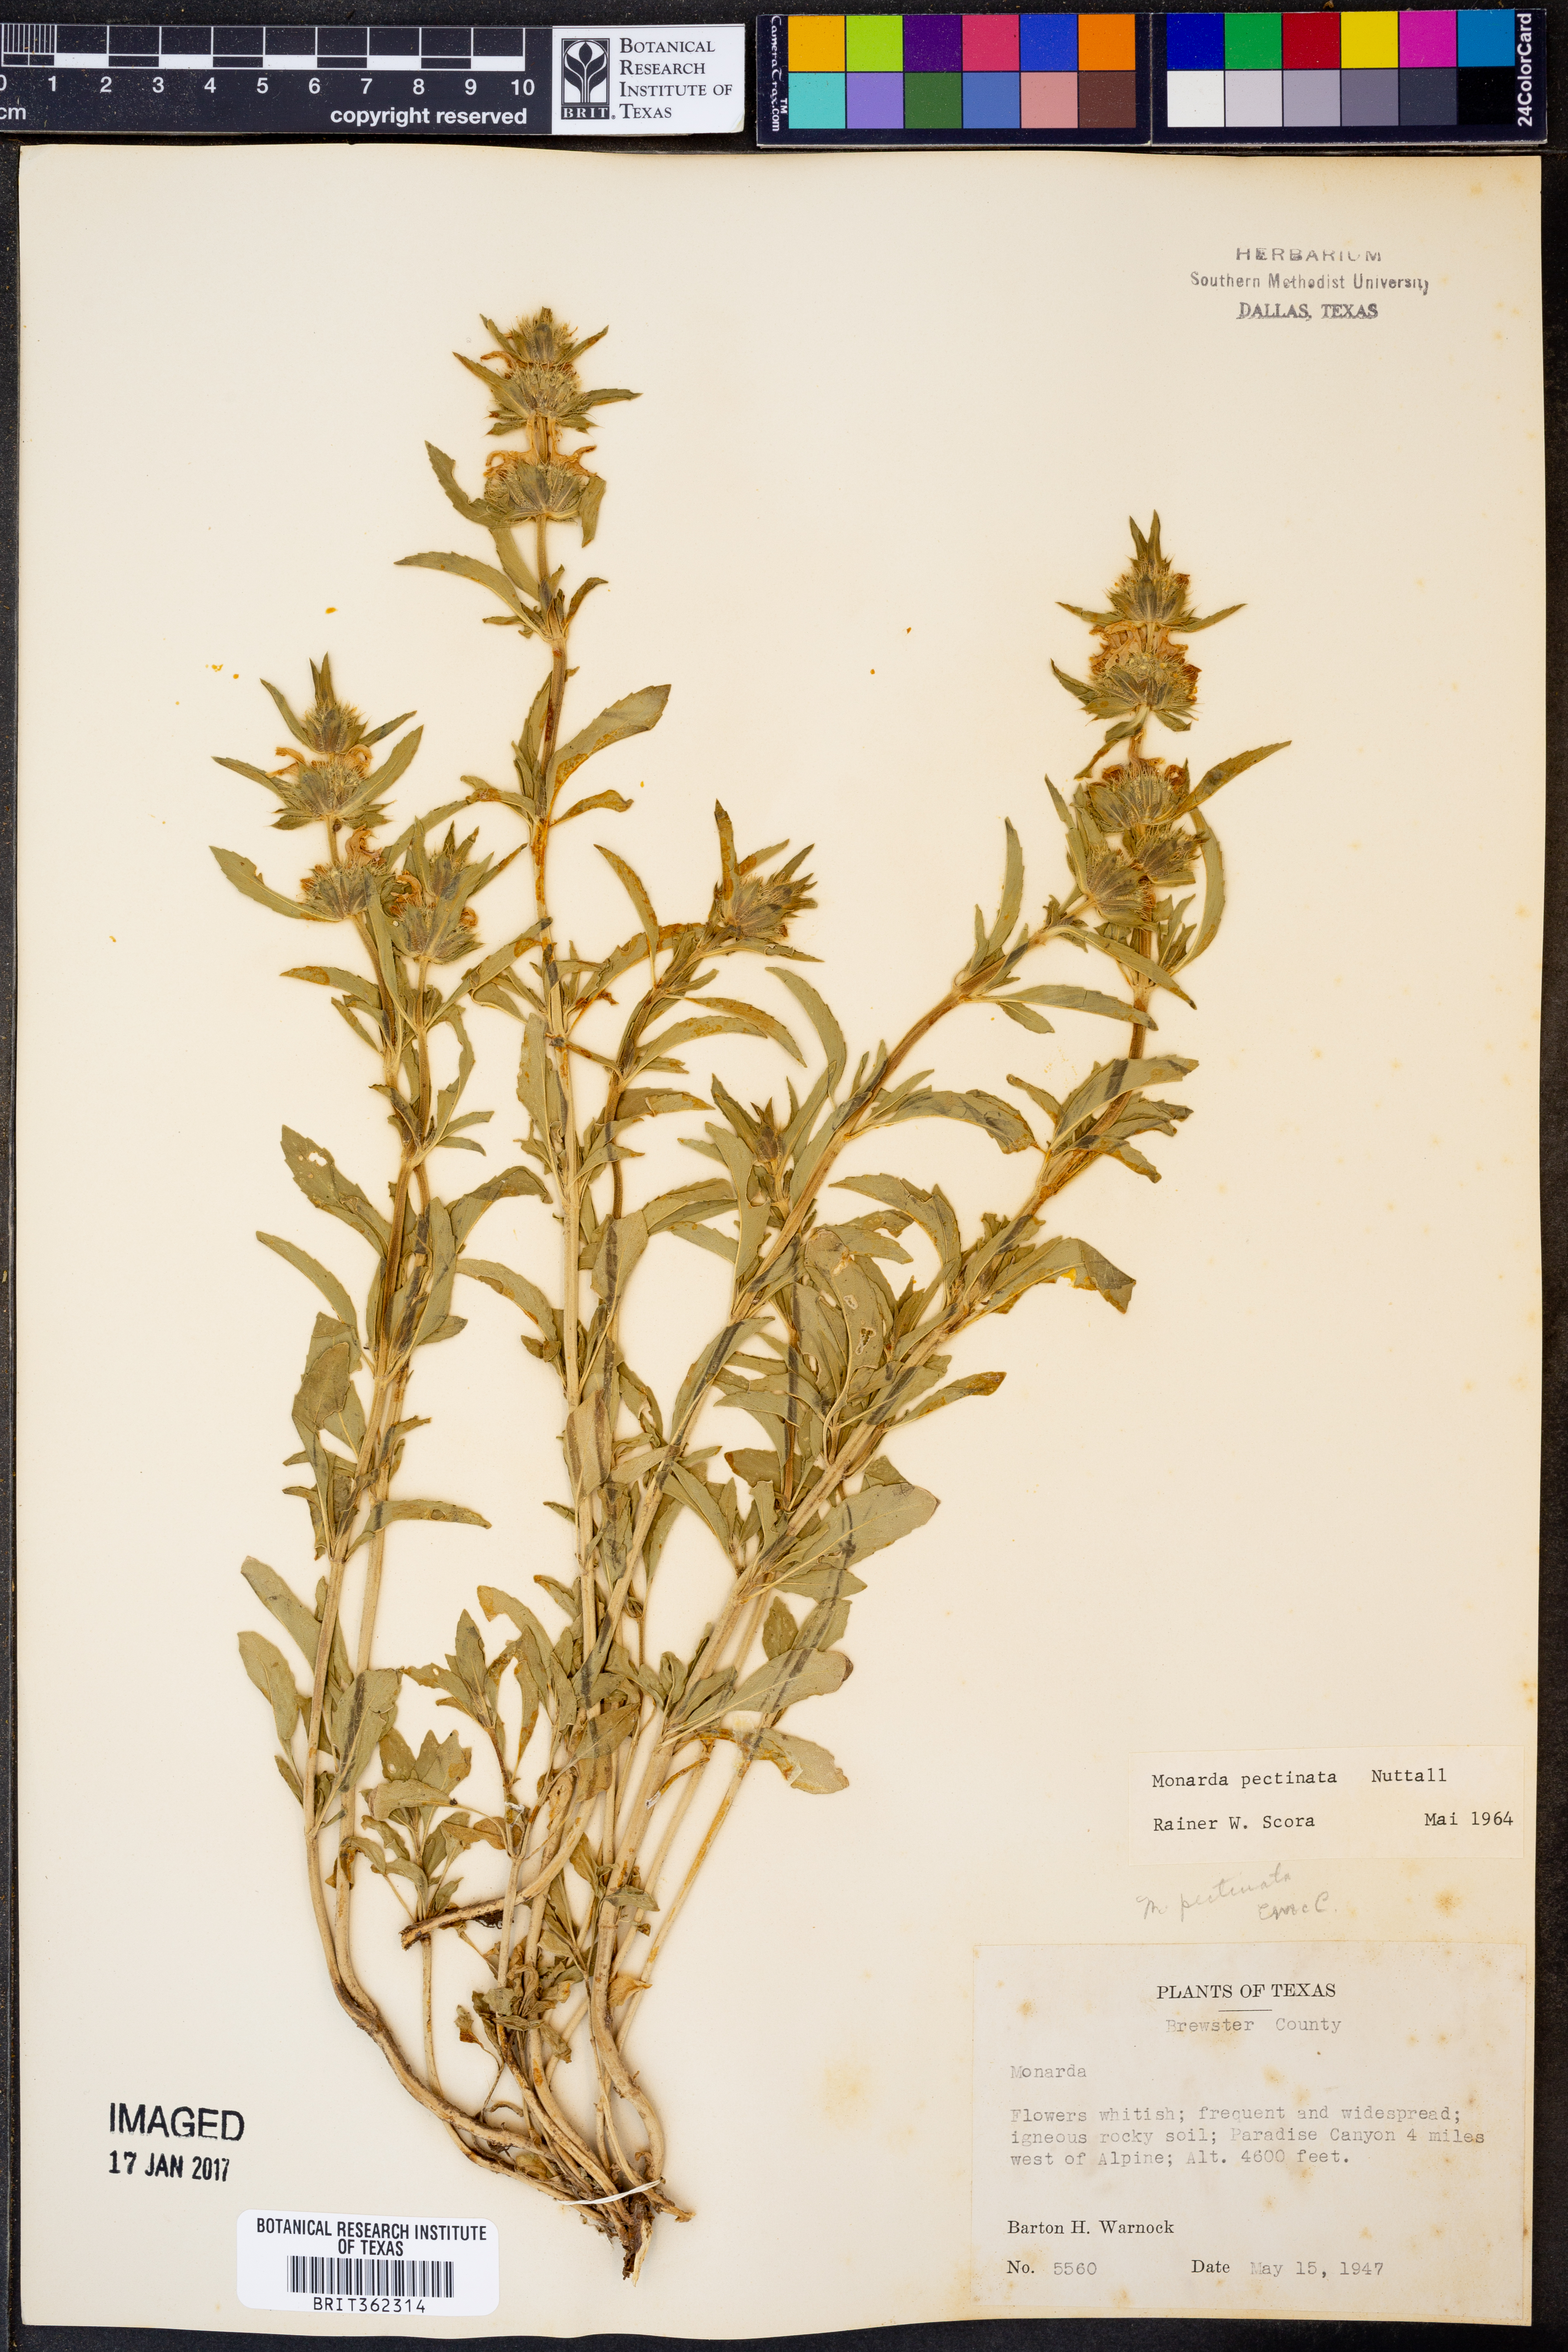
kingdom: Plantae
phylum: Tracheophyta
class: Magnoliopsida
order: Lamiales
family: Lamiaceae
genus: Monarda
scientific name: Monarda pectinata
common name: Plains beebalm
